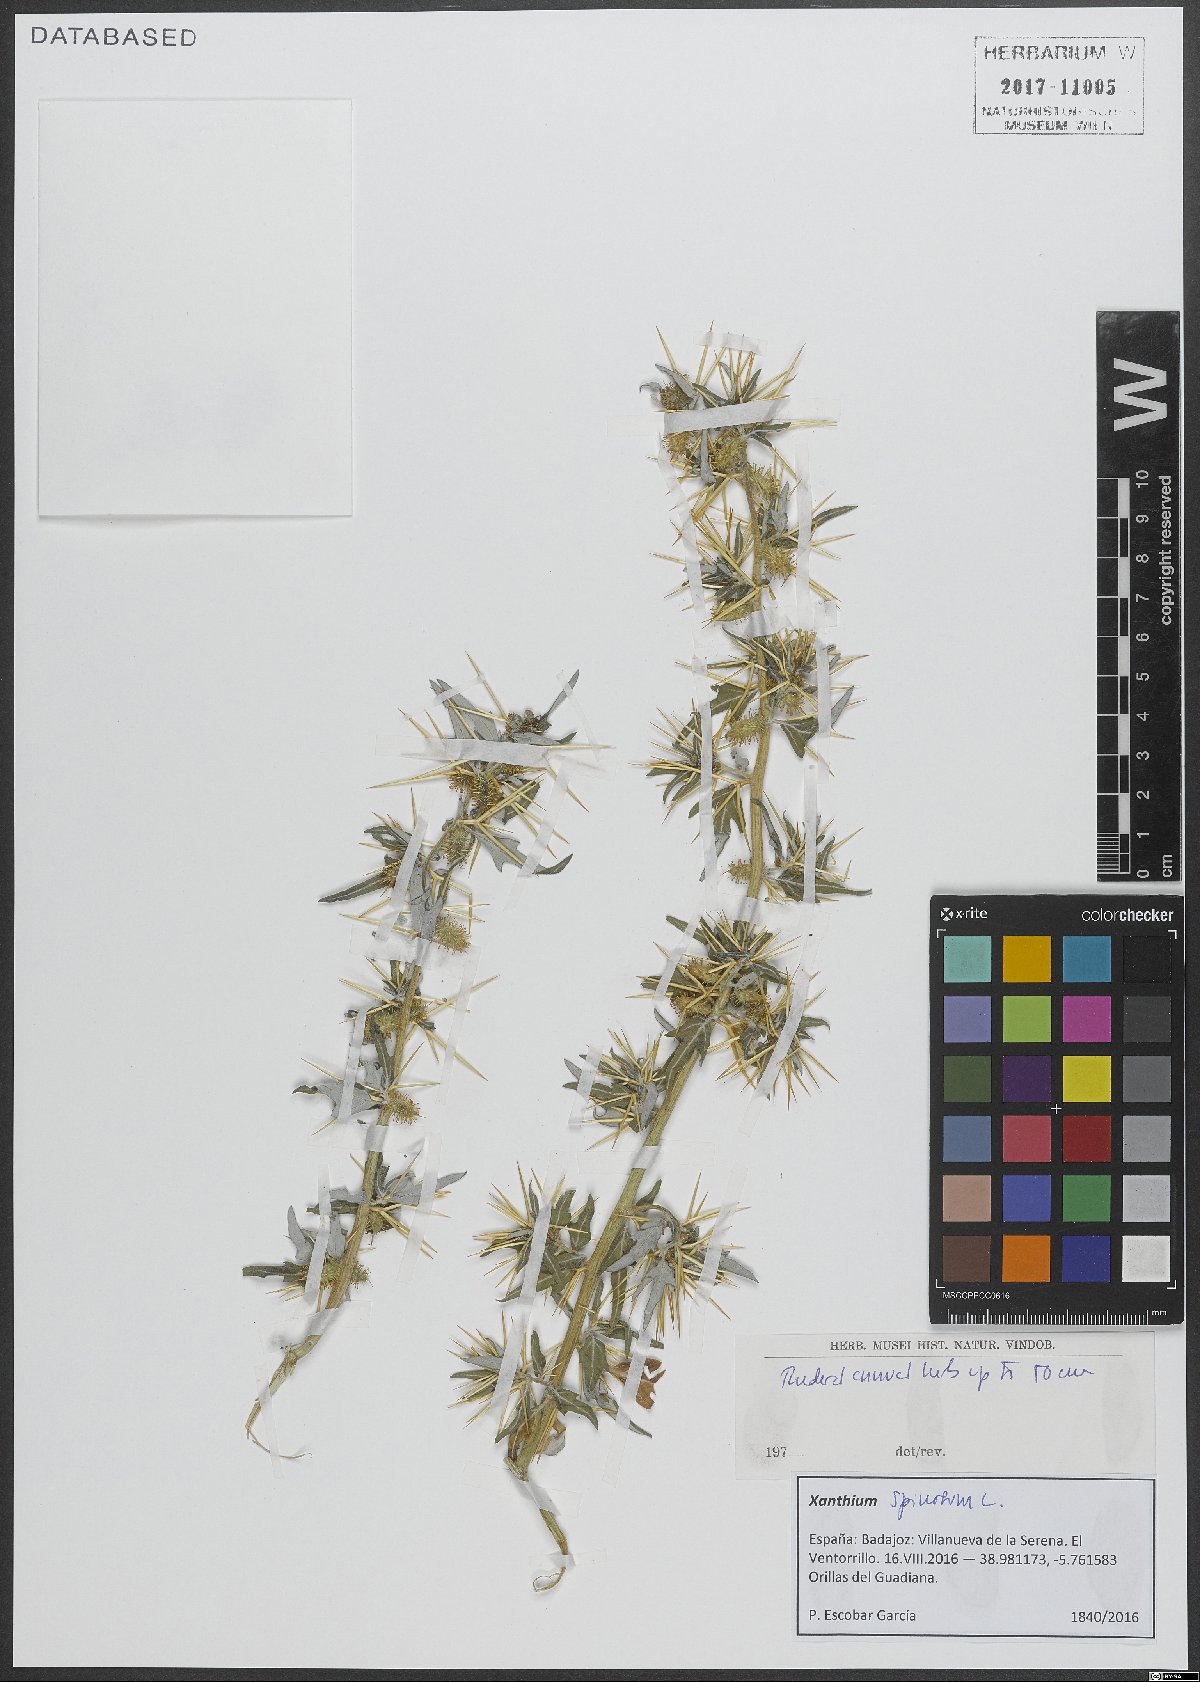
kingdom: Plantae
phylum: Tracheophyta
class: Magnoliopsida
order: Asterales
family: Asteraceae
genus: Xanthium
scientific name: Xanthium spinosum
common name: Spiny cocklebur
